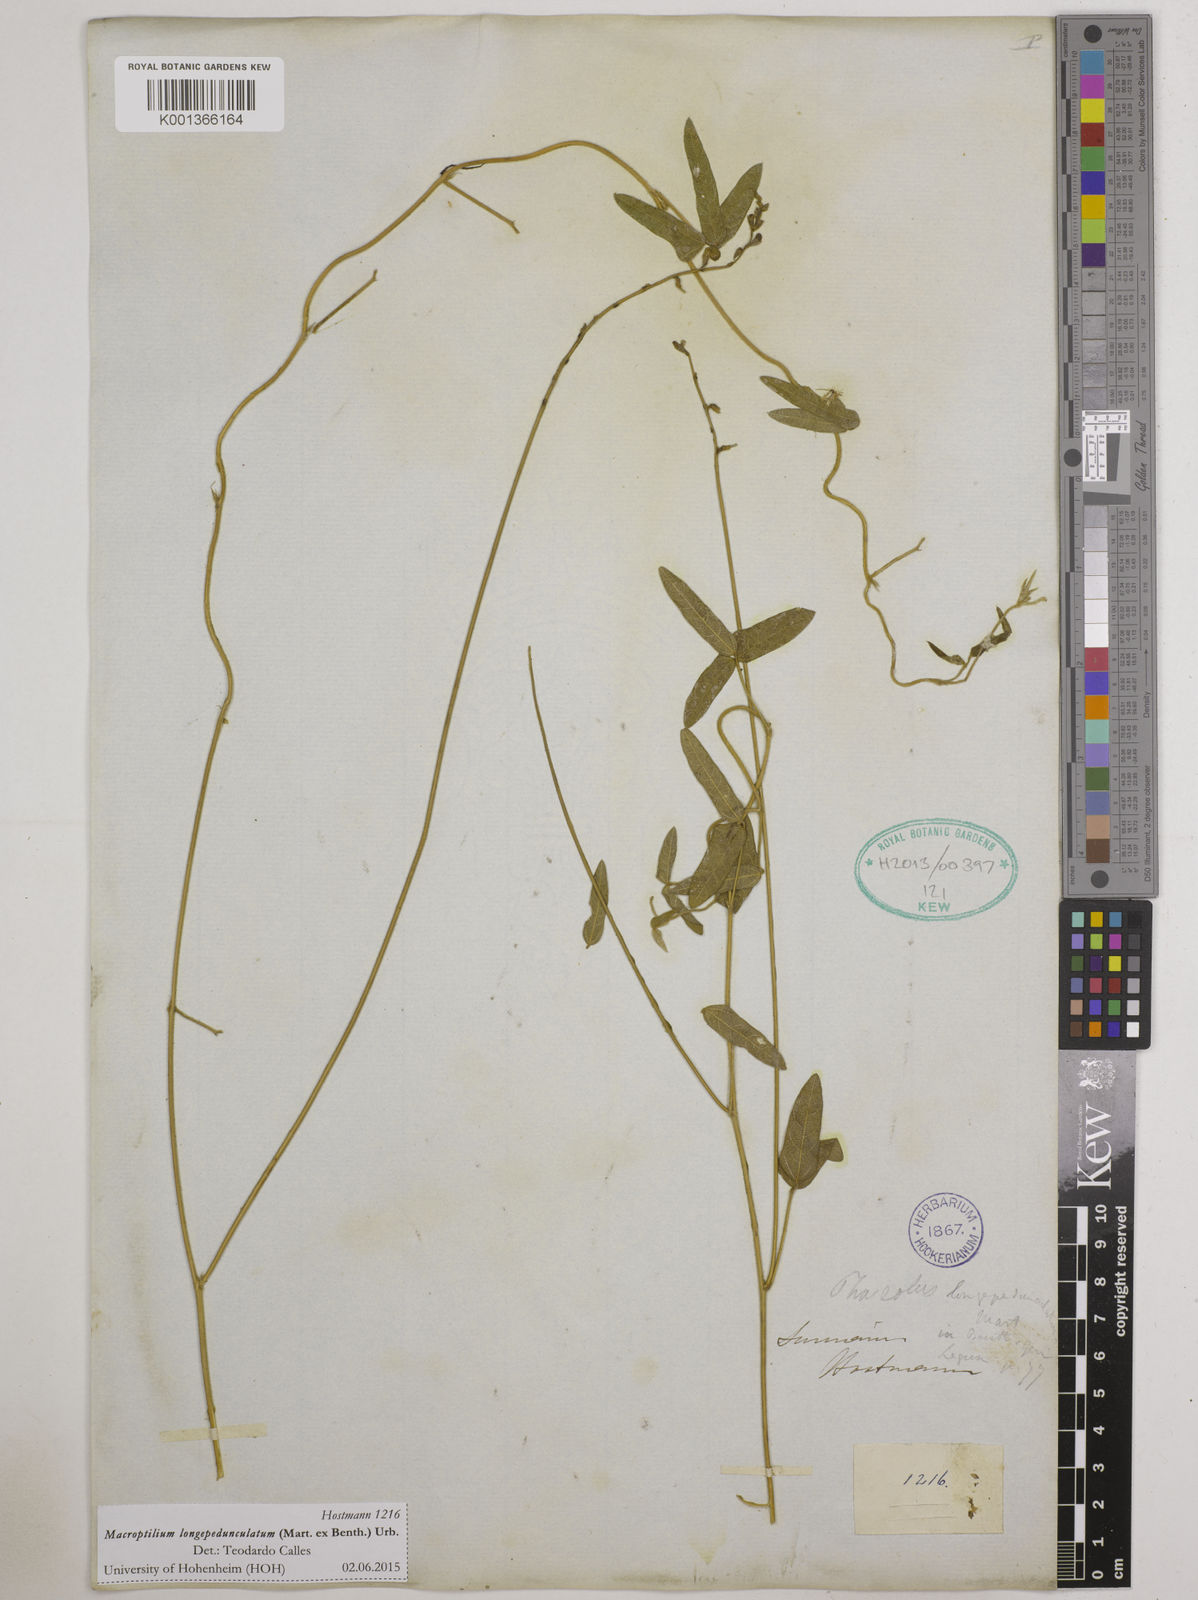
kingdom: Plantae
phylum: Tracheophyta
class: Magnoliopsida
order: Fabales
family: Fabaceae
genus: Macroptilium
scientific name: Macroptilium longepedunculatum
